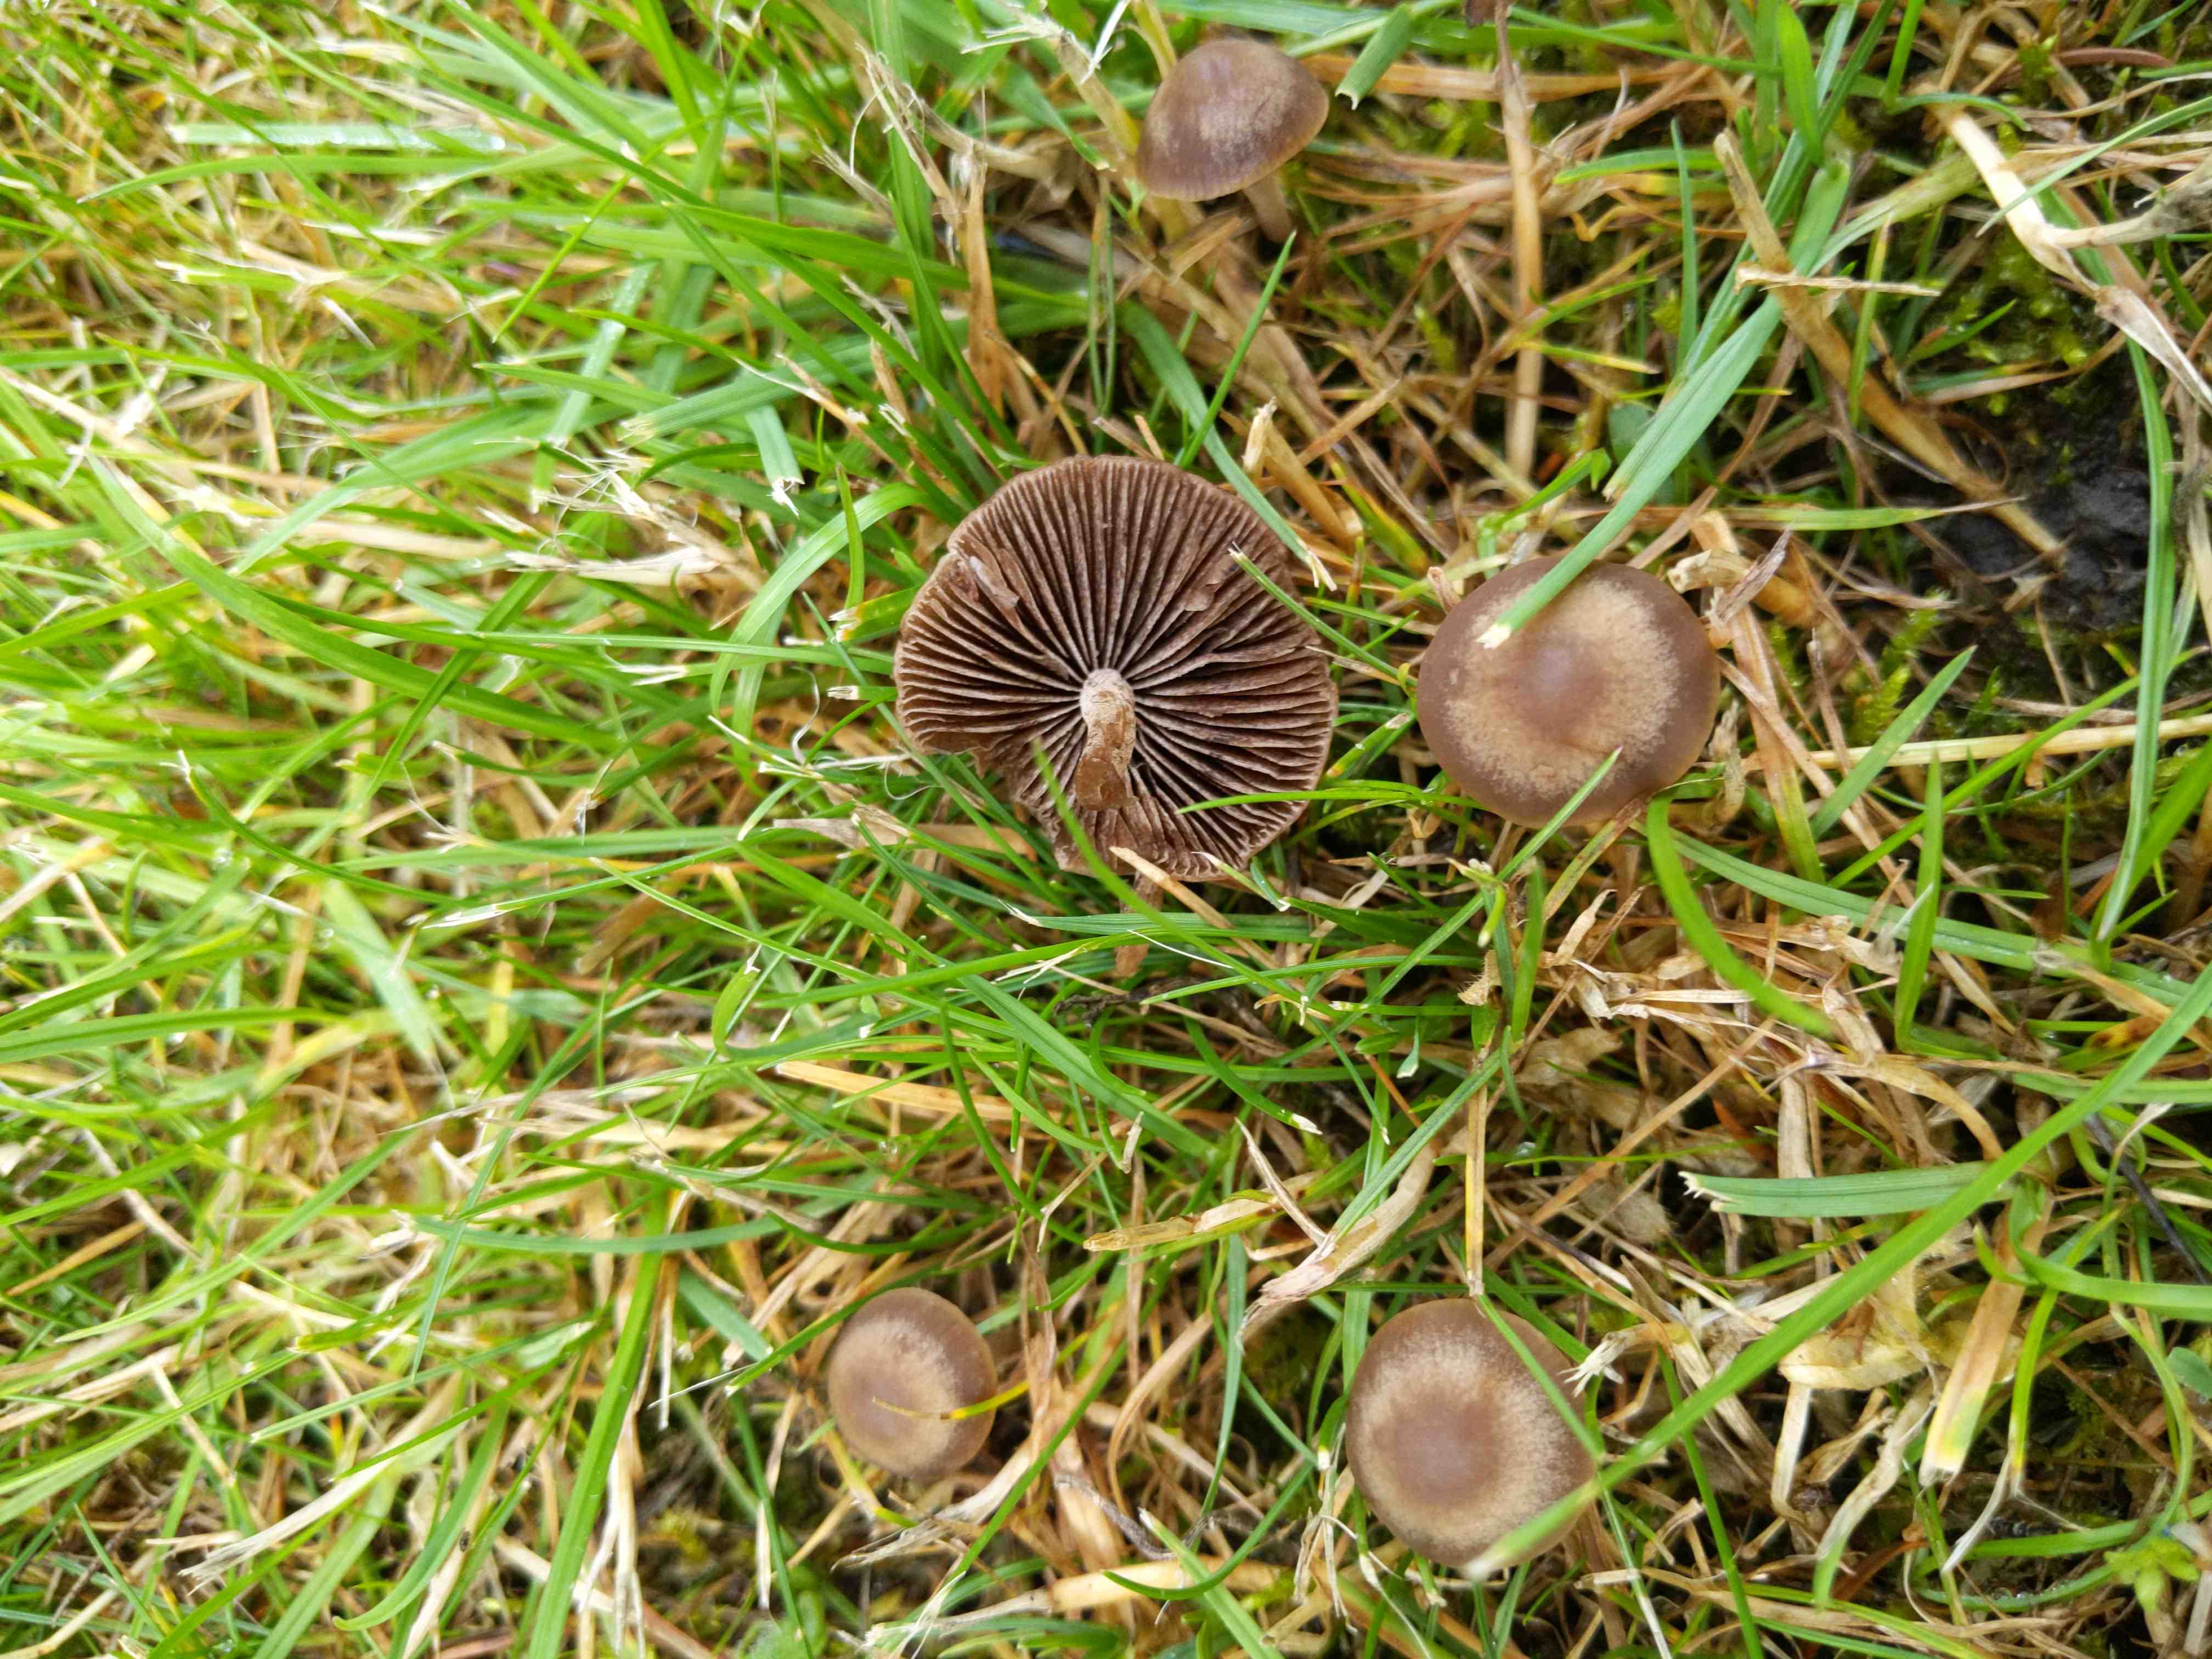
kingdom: Fungi
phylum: Basidiomycota
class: Agaricomycetes
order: Agaricales
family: Bolbitiaceae
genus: Panaeolina
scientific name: Panaeolina foenisecii
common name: høslætsvamp
